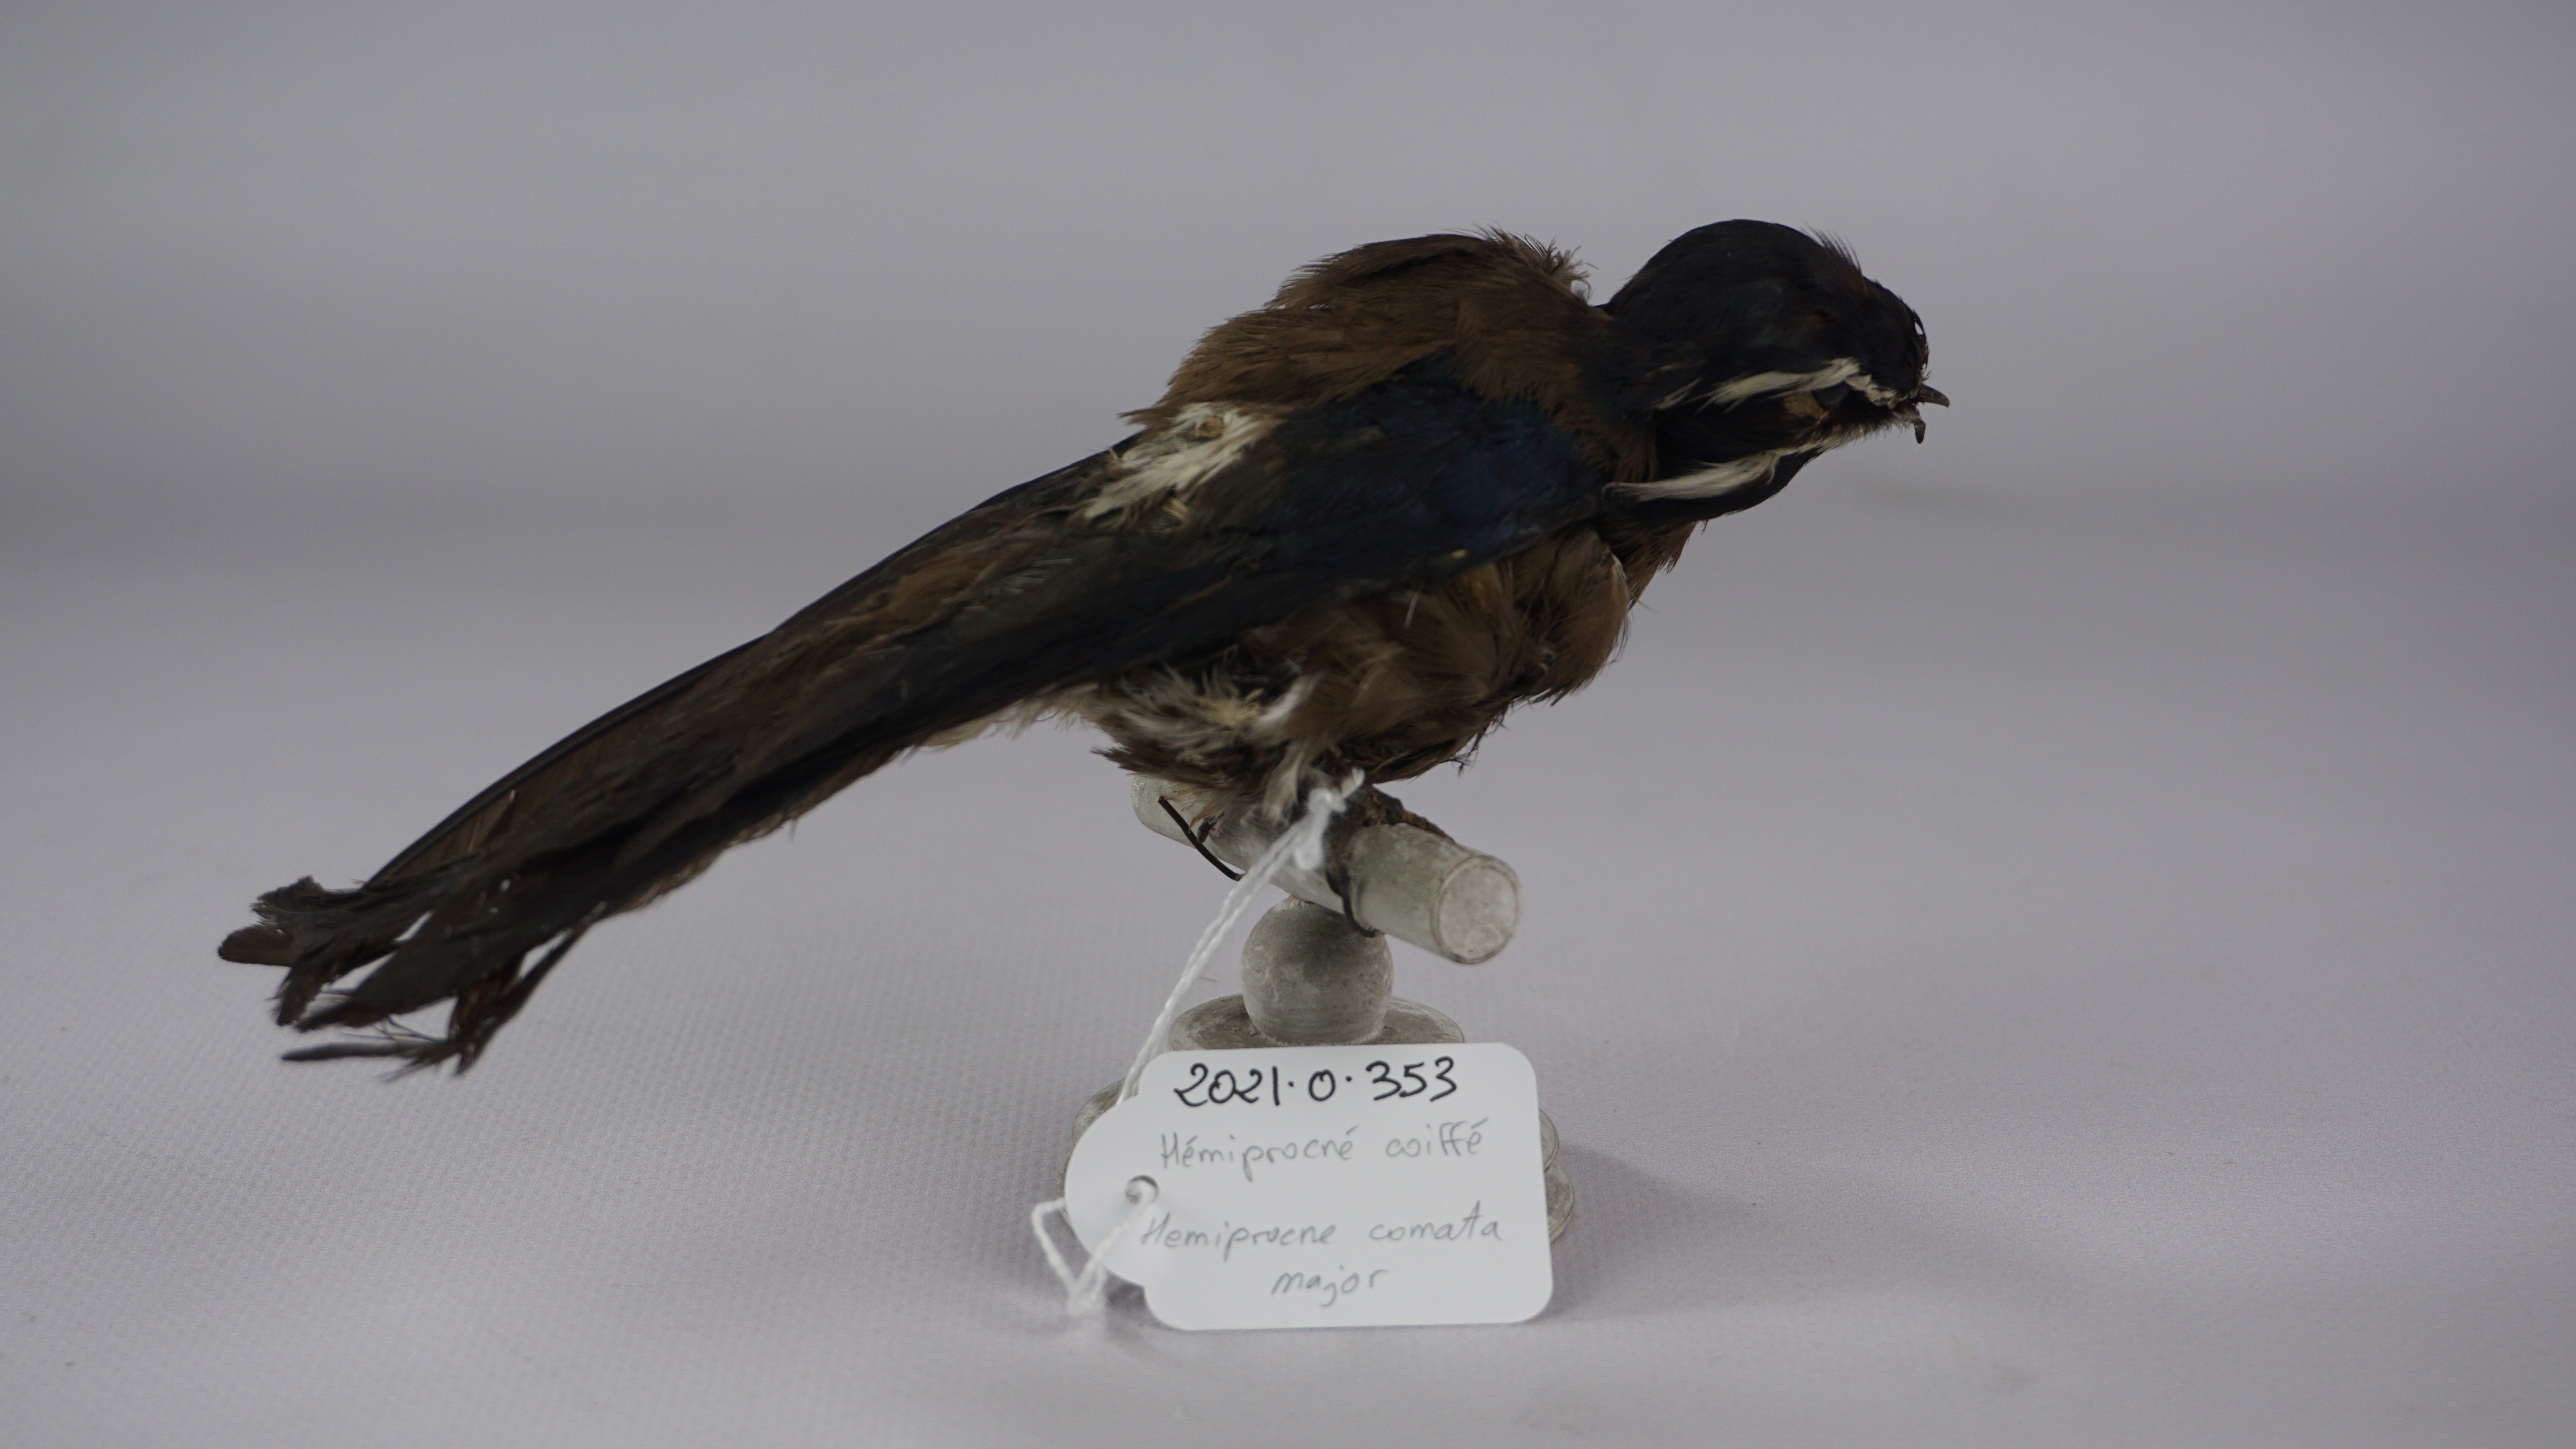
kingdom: Animalia
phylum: Chordata
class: Aves
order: Apodiformes
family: Hemiprocnidae
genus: Hemiprocne
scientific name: Hemiprocne comata
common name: Whiskered treeswift
